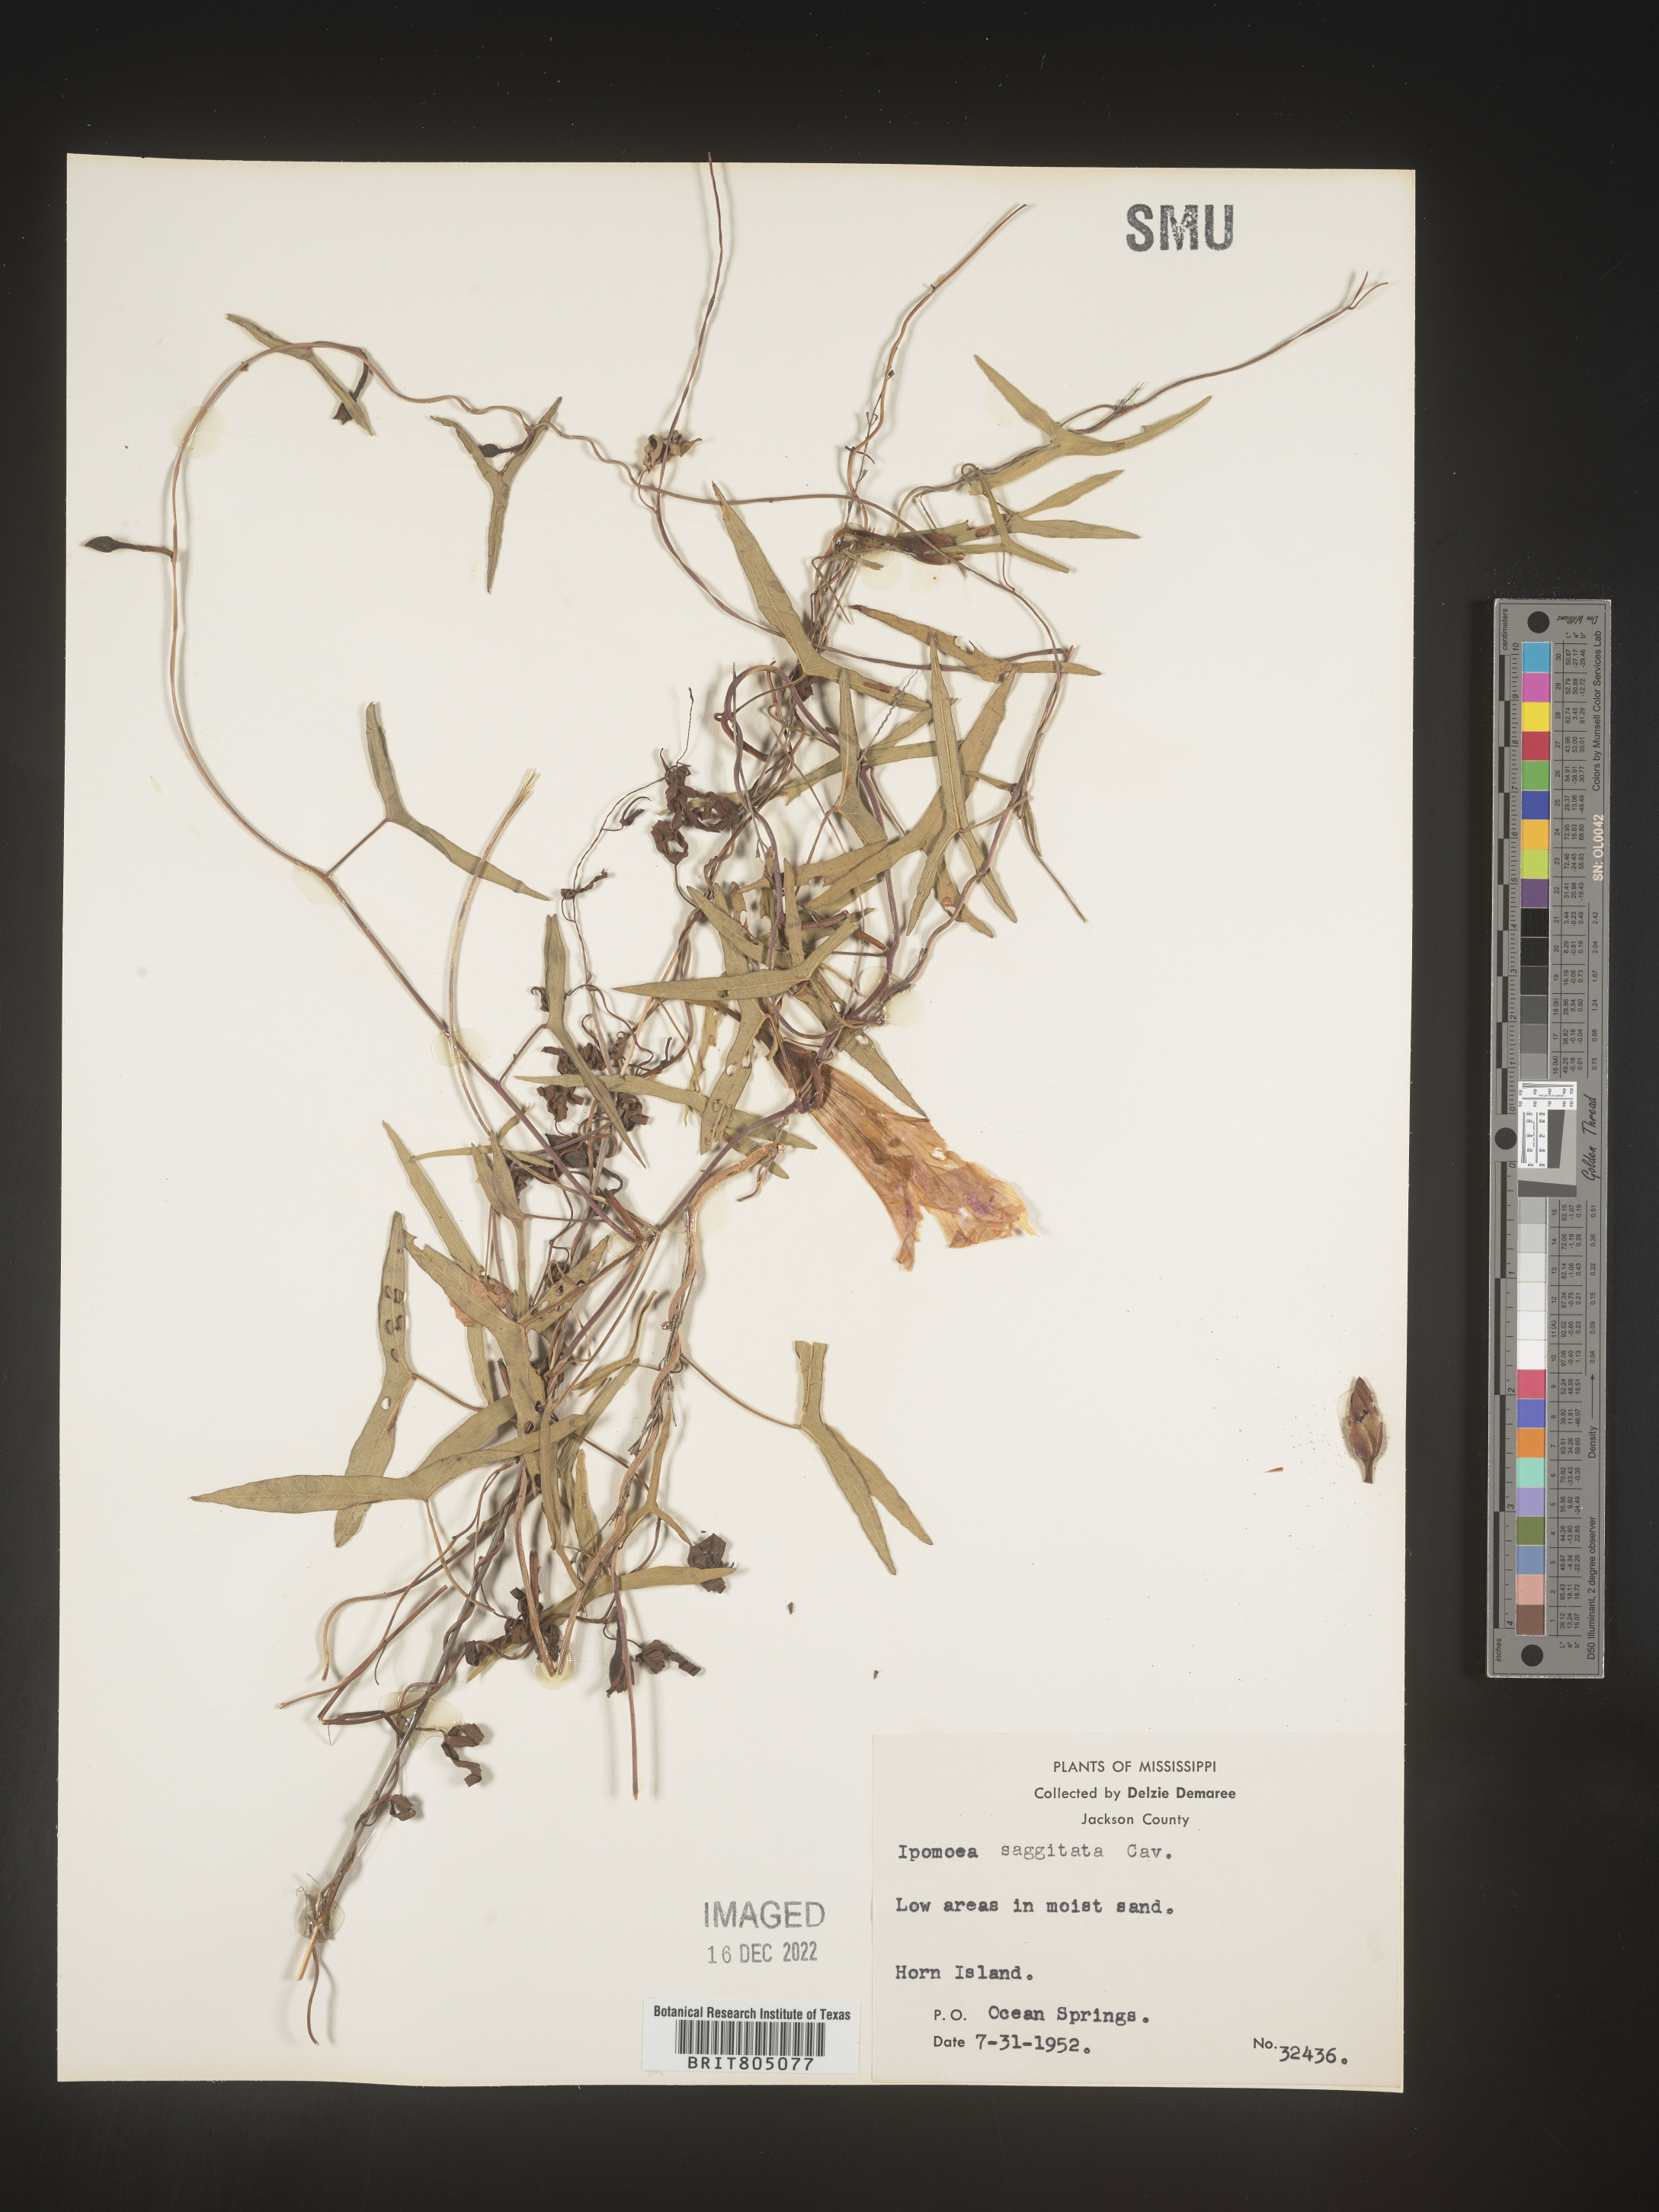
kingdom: Plantae
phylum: Tracheophyta
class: Magnoliopsida
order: Solanales
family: Convolvulaceae
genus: Ipomoea
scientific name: Ipomoea sinensis
